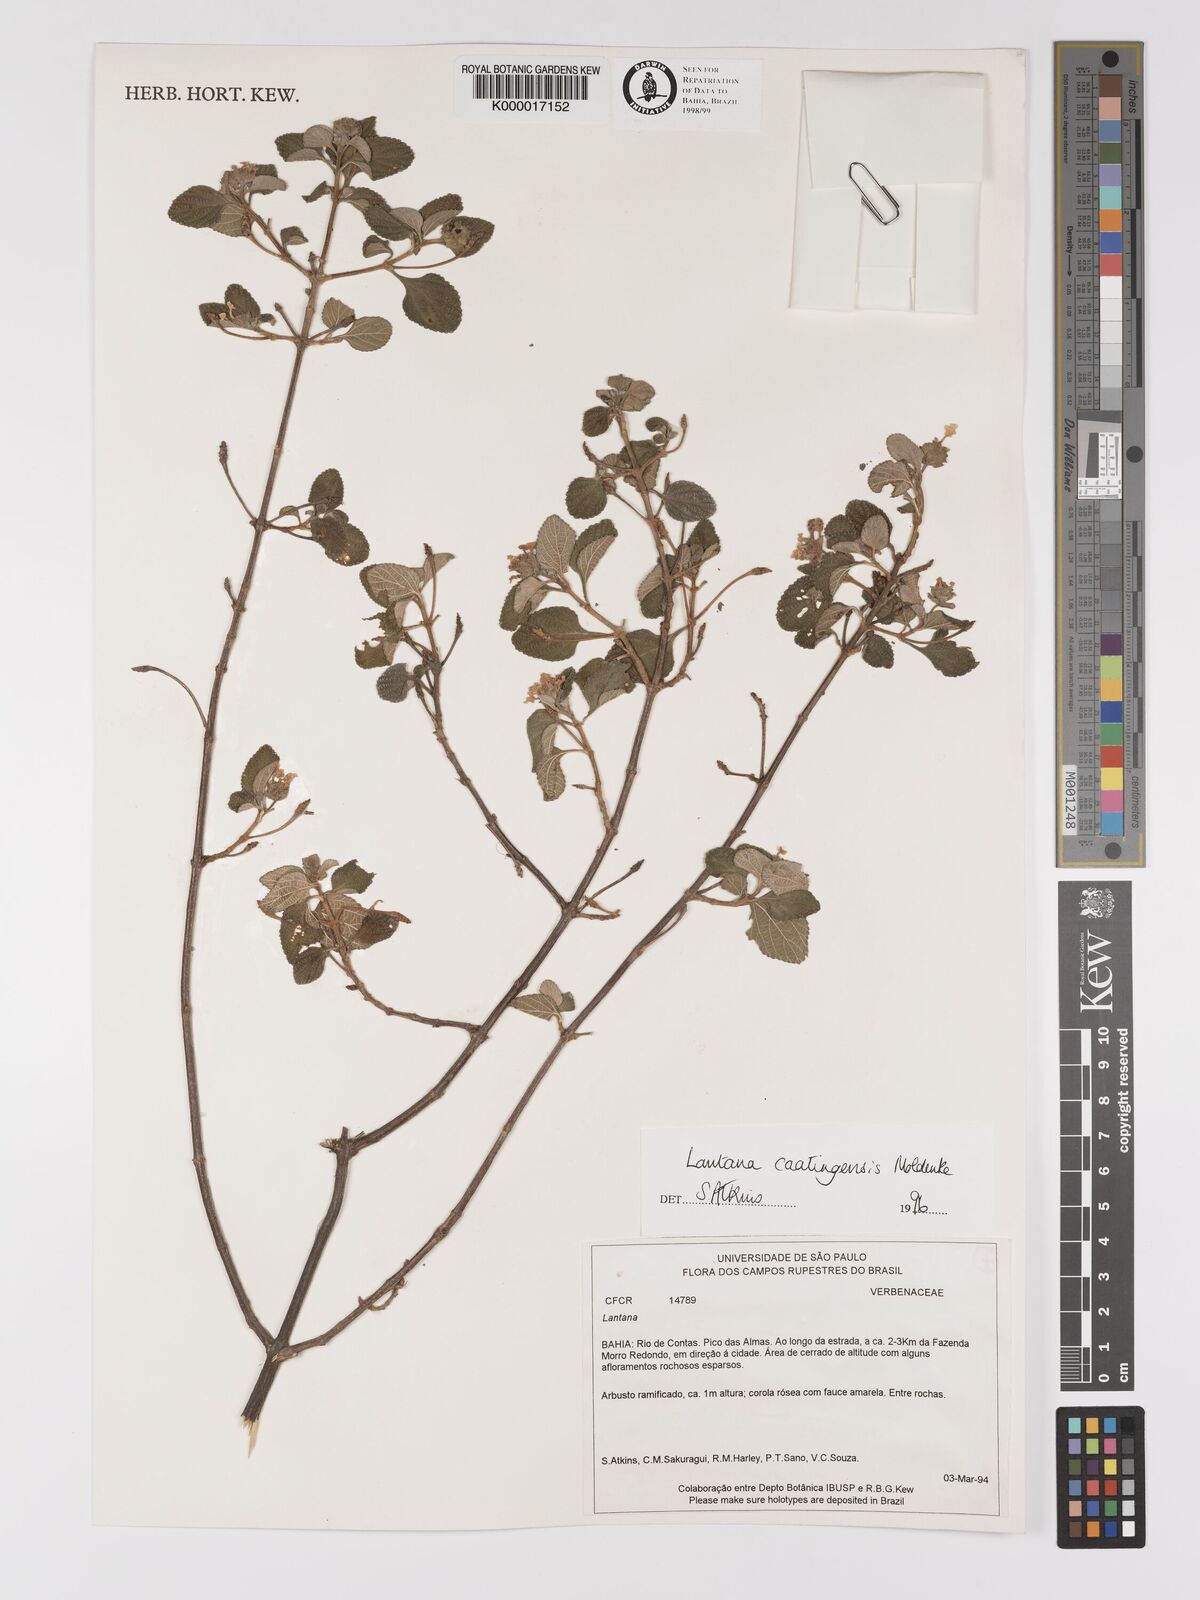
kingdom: Plantae
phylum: Tracheophyta
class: Magnoliopsida
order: Lamiales
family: Verbenaceae
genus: Lantana
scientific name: Lantana caatingensis
